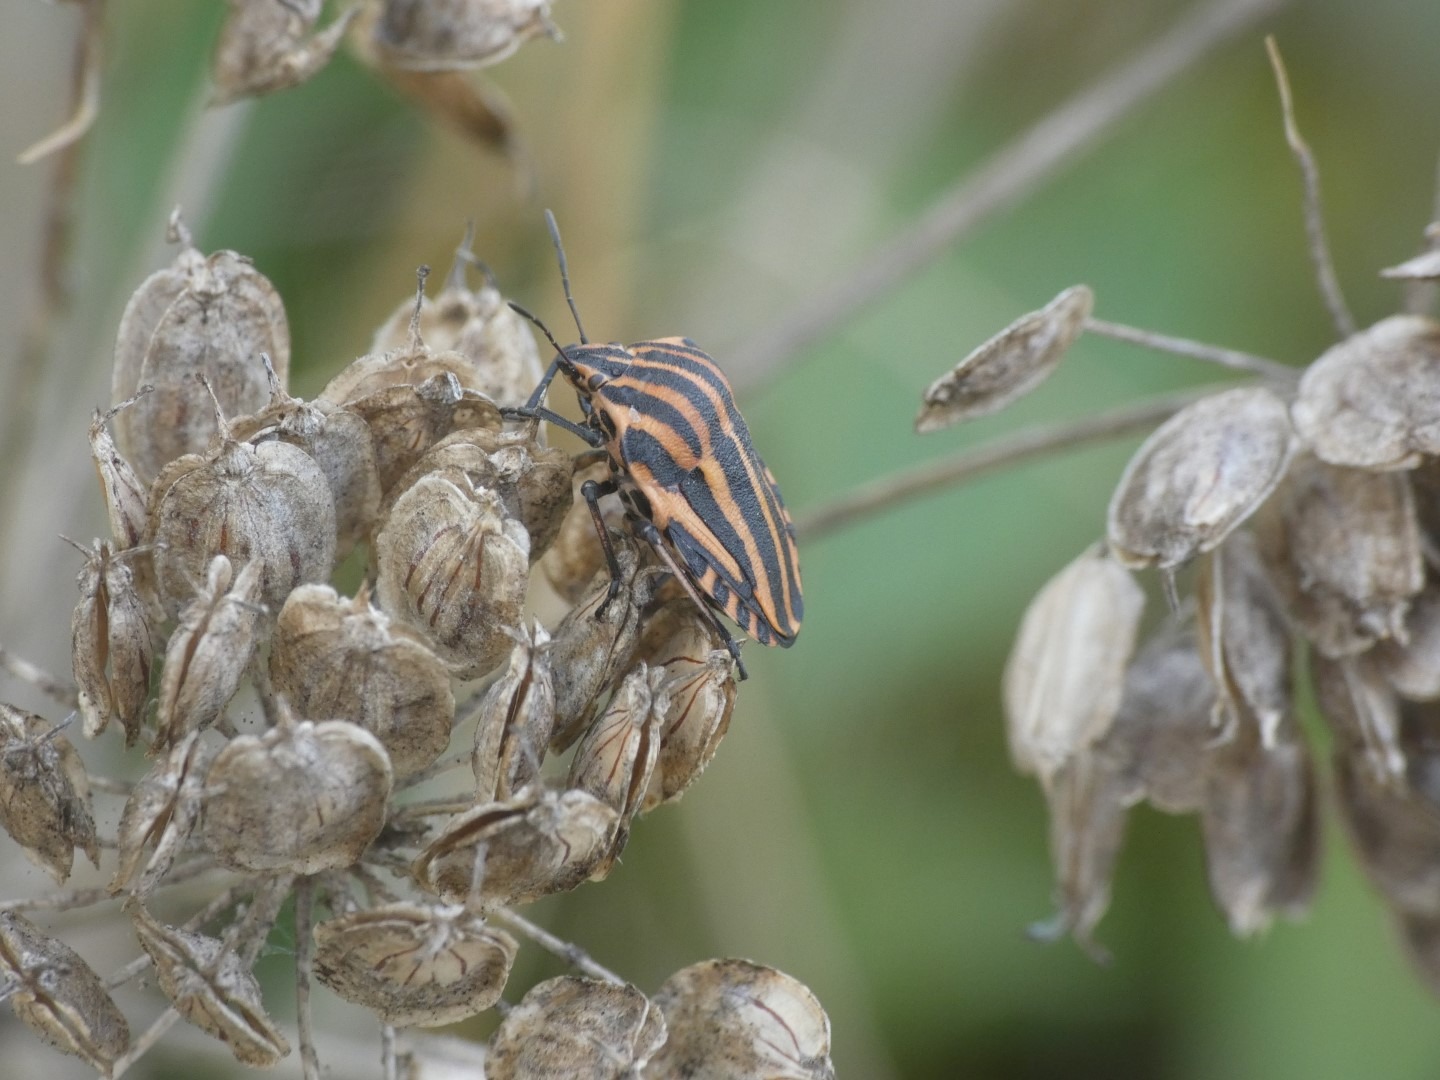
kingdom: Animalia
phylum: Arthropoda
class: Insecta
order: Hemiptera
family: Pentatomidae
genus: Graphosoma
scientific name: Graphosoma italicum
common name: Stribetæge
